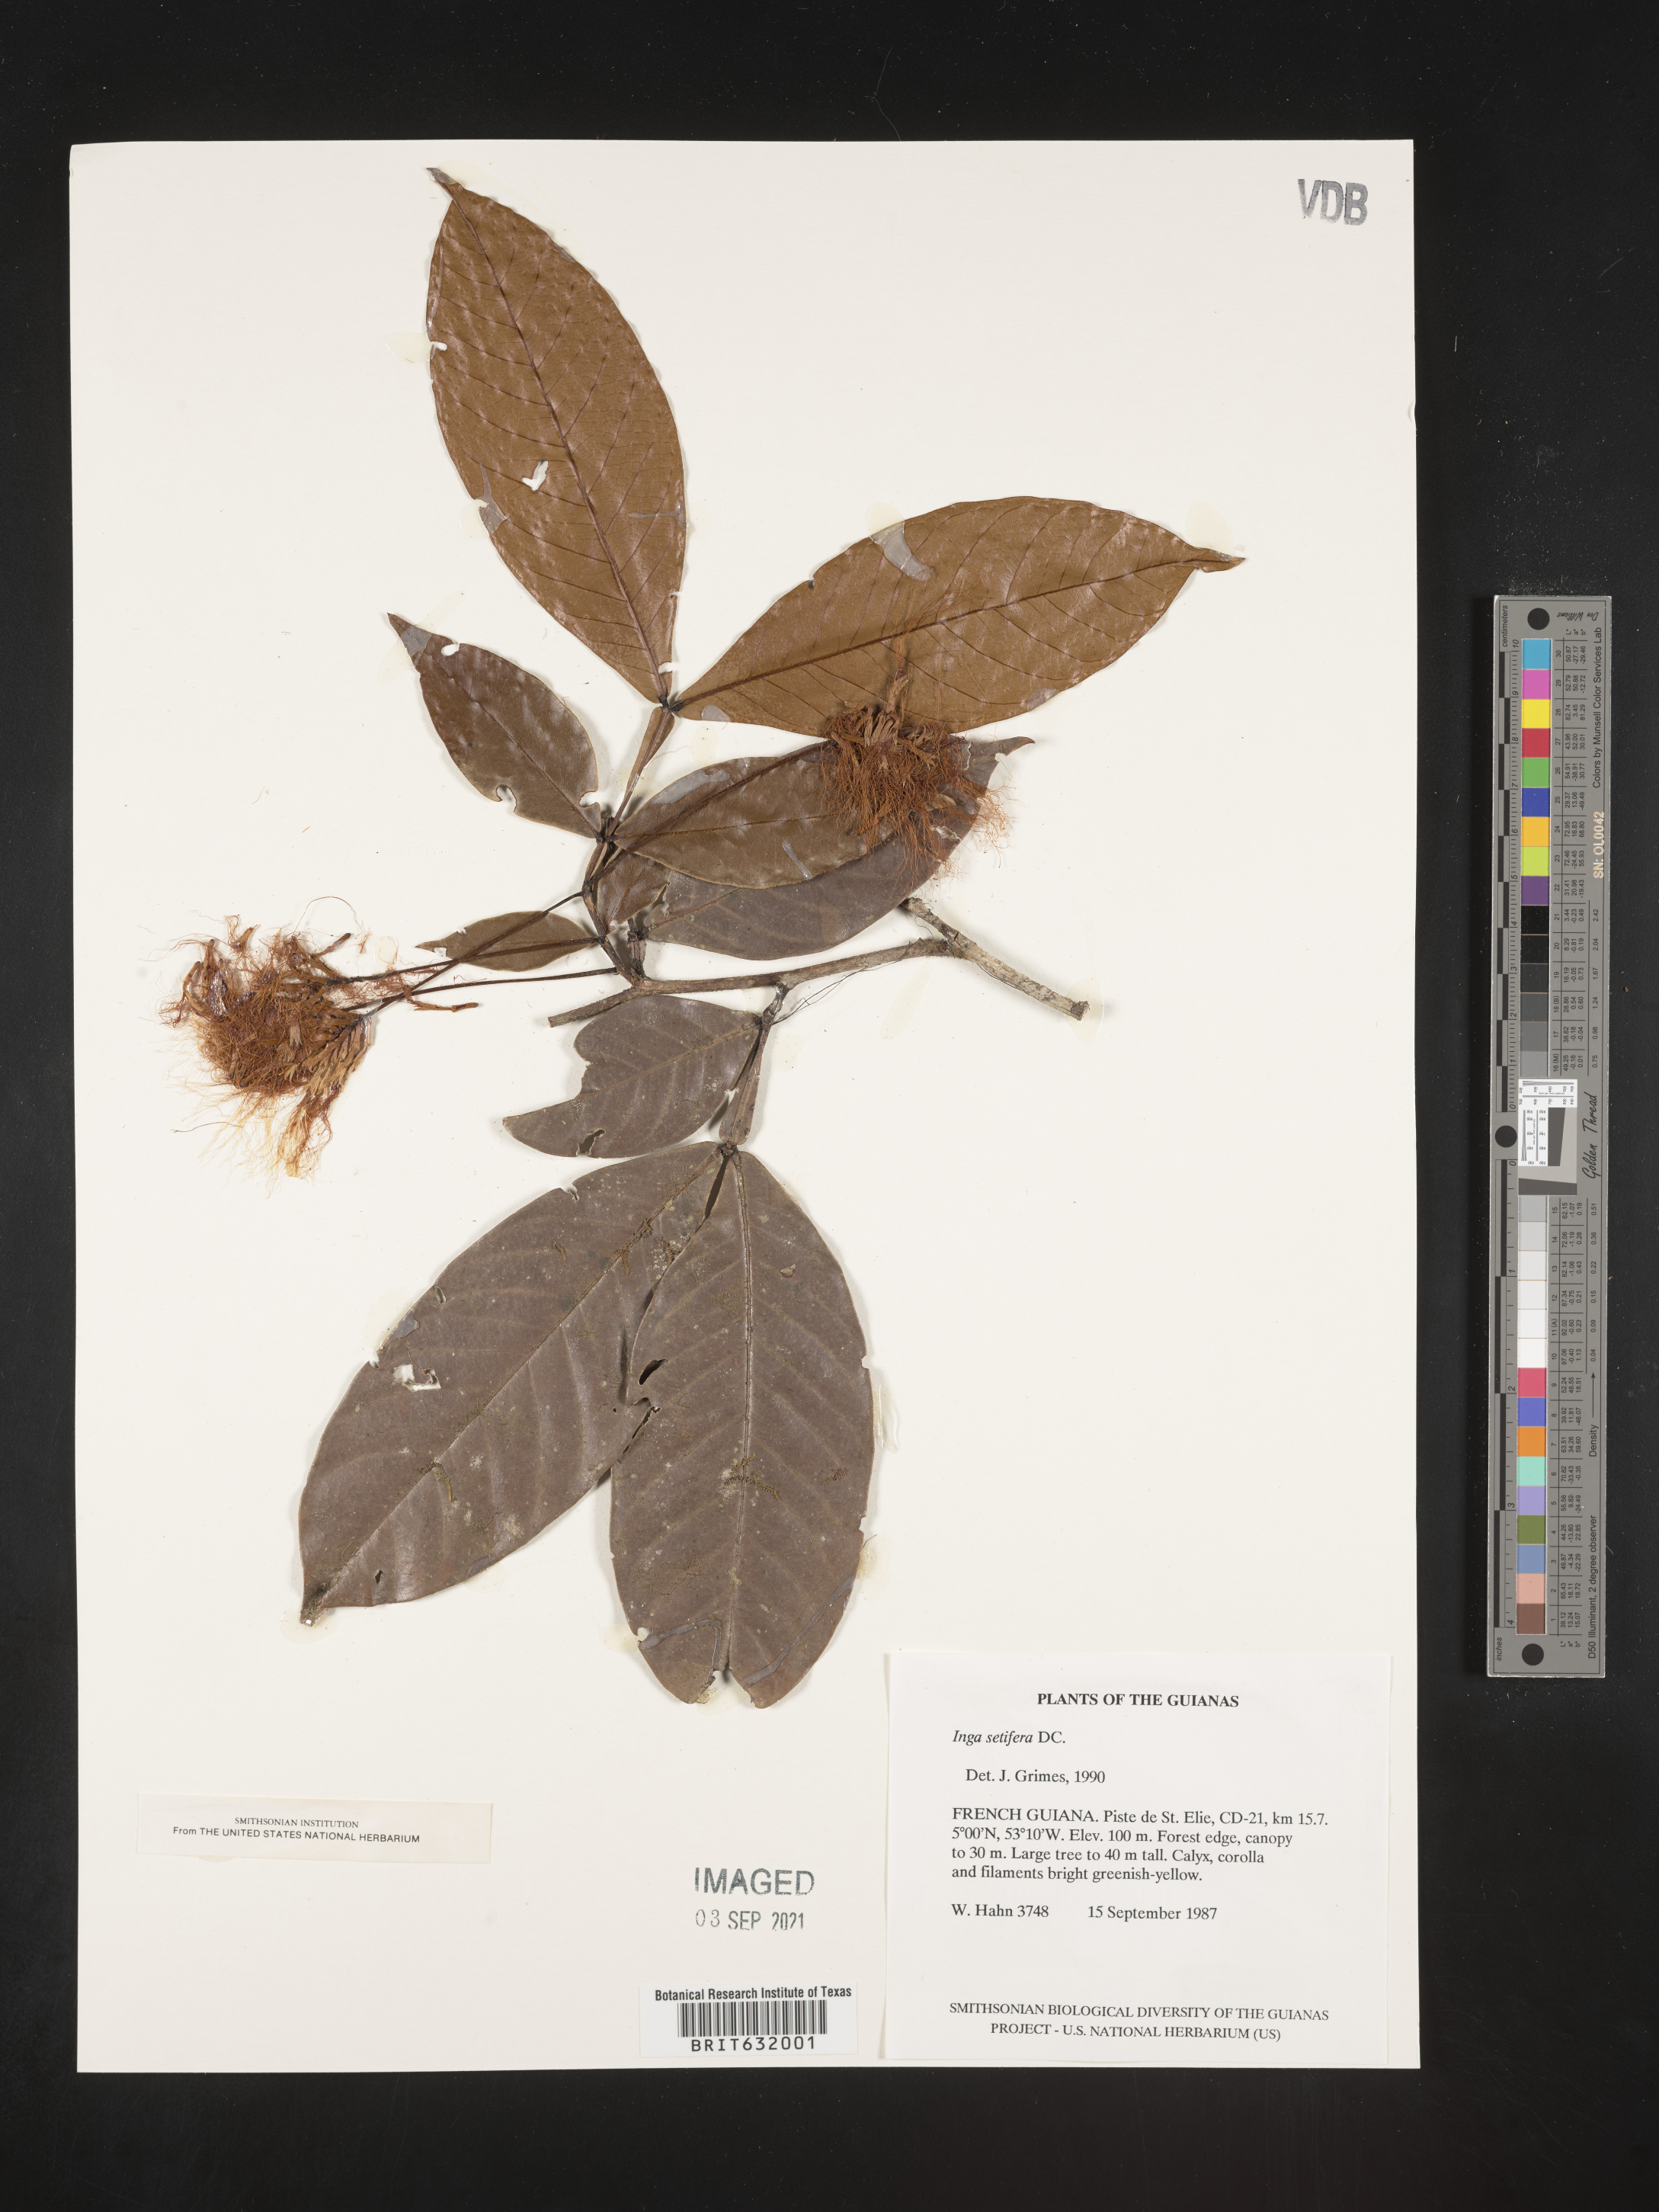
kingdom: Plantae
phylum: Tracheophyta
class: Magnoliopsida
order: Fabales
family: Fabaceae
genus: Inga
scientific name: Inga
